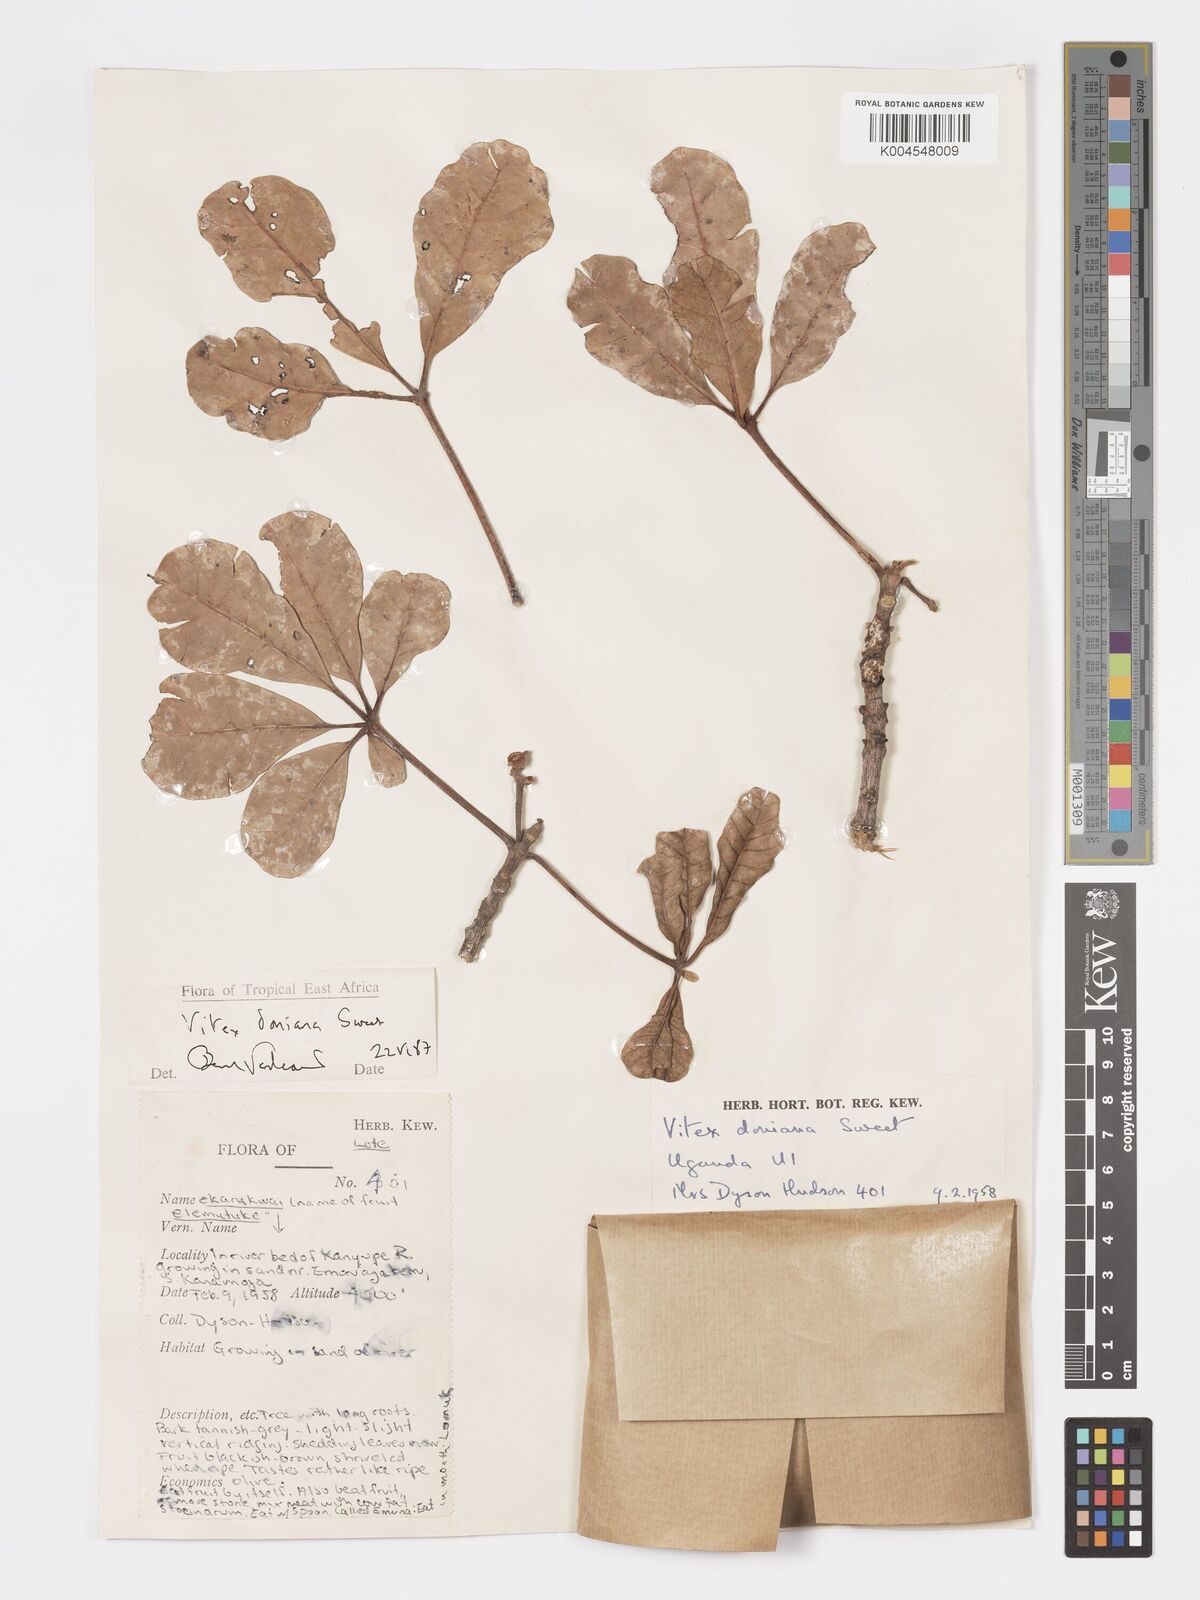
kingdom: Plantae
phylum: Tracheophyta
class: Magnoliopsida
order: Lamiales
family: Lamiaceae
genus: Vitex
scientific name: Vitex doniana
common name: Black plum
